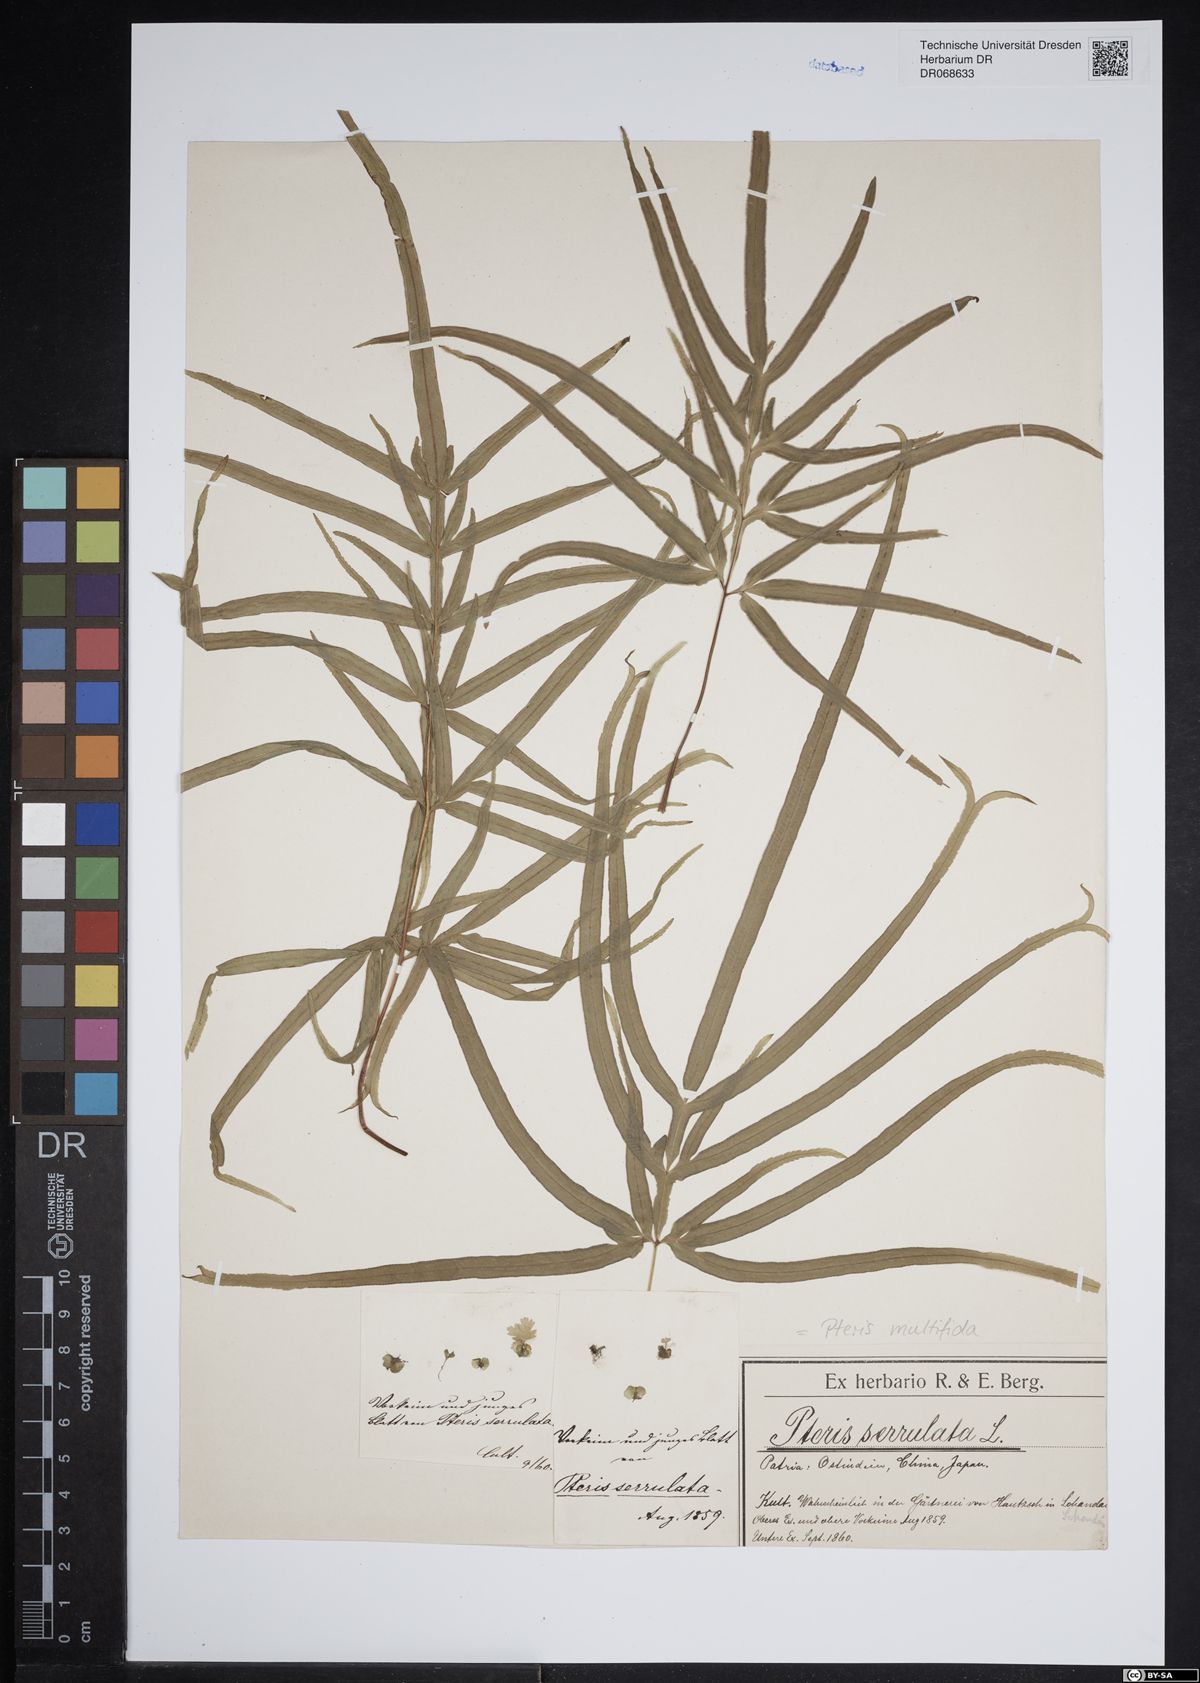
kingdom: Plantae
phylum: Tracheophyta
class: Polypodiopsida
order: Polypodiales
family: Pteridaceae
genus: Pteris
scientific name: Pteris multifida
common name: Spider brake
